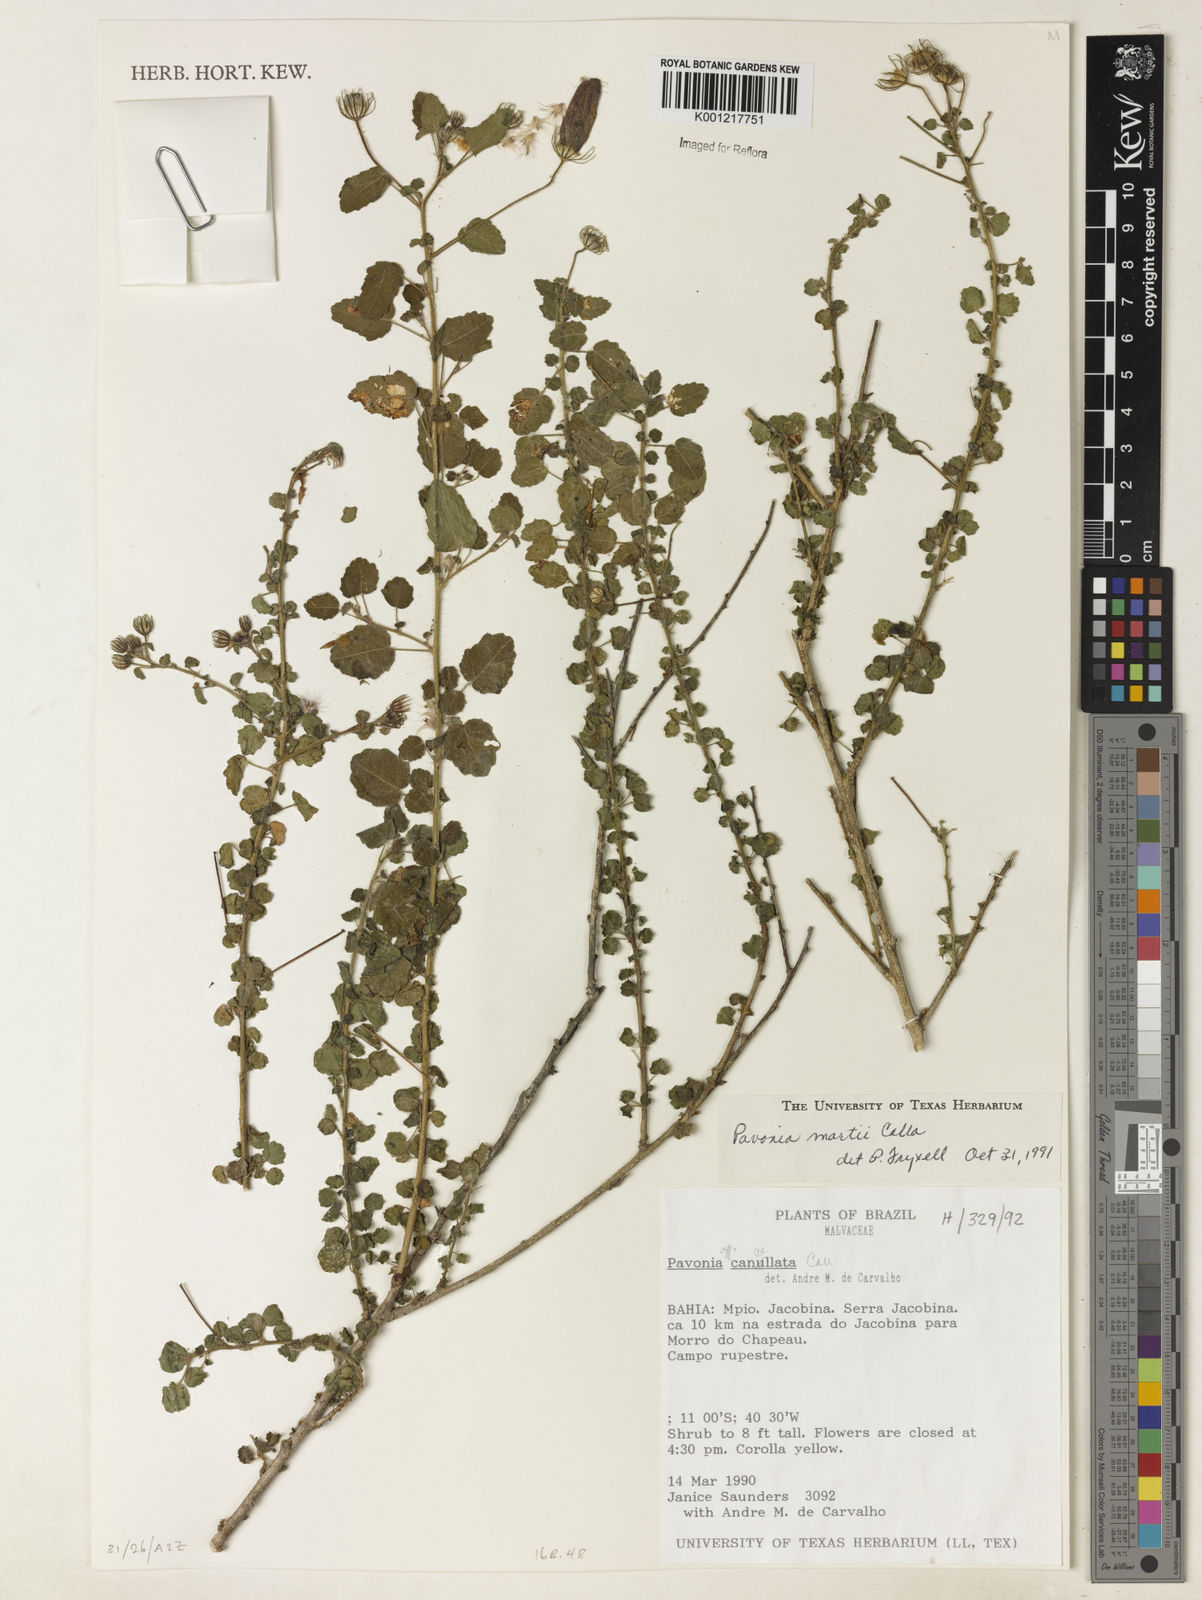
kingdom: Plantae
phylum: Tracheophyta
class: Magnoliopsida
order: Malvales
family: Malvaceae
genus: Pavonia
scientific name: Pavonia martii
